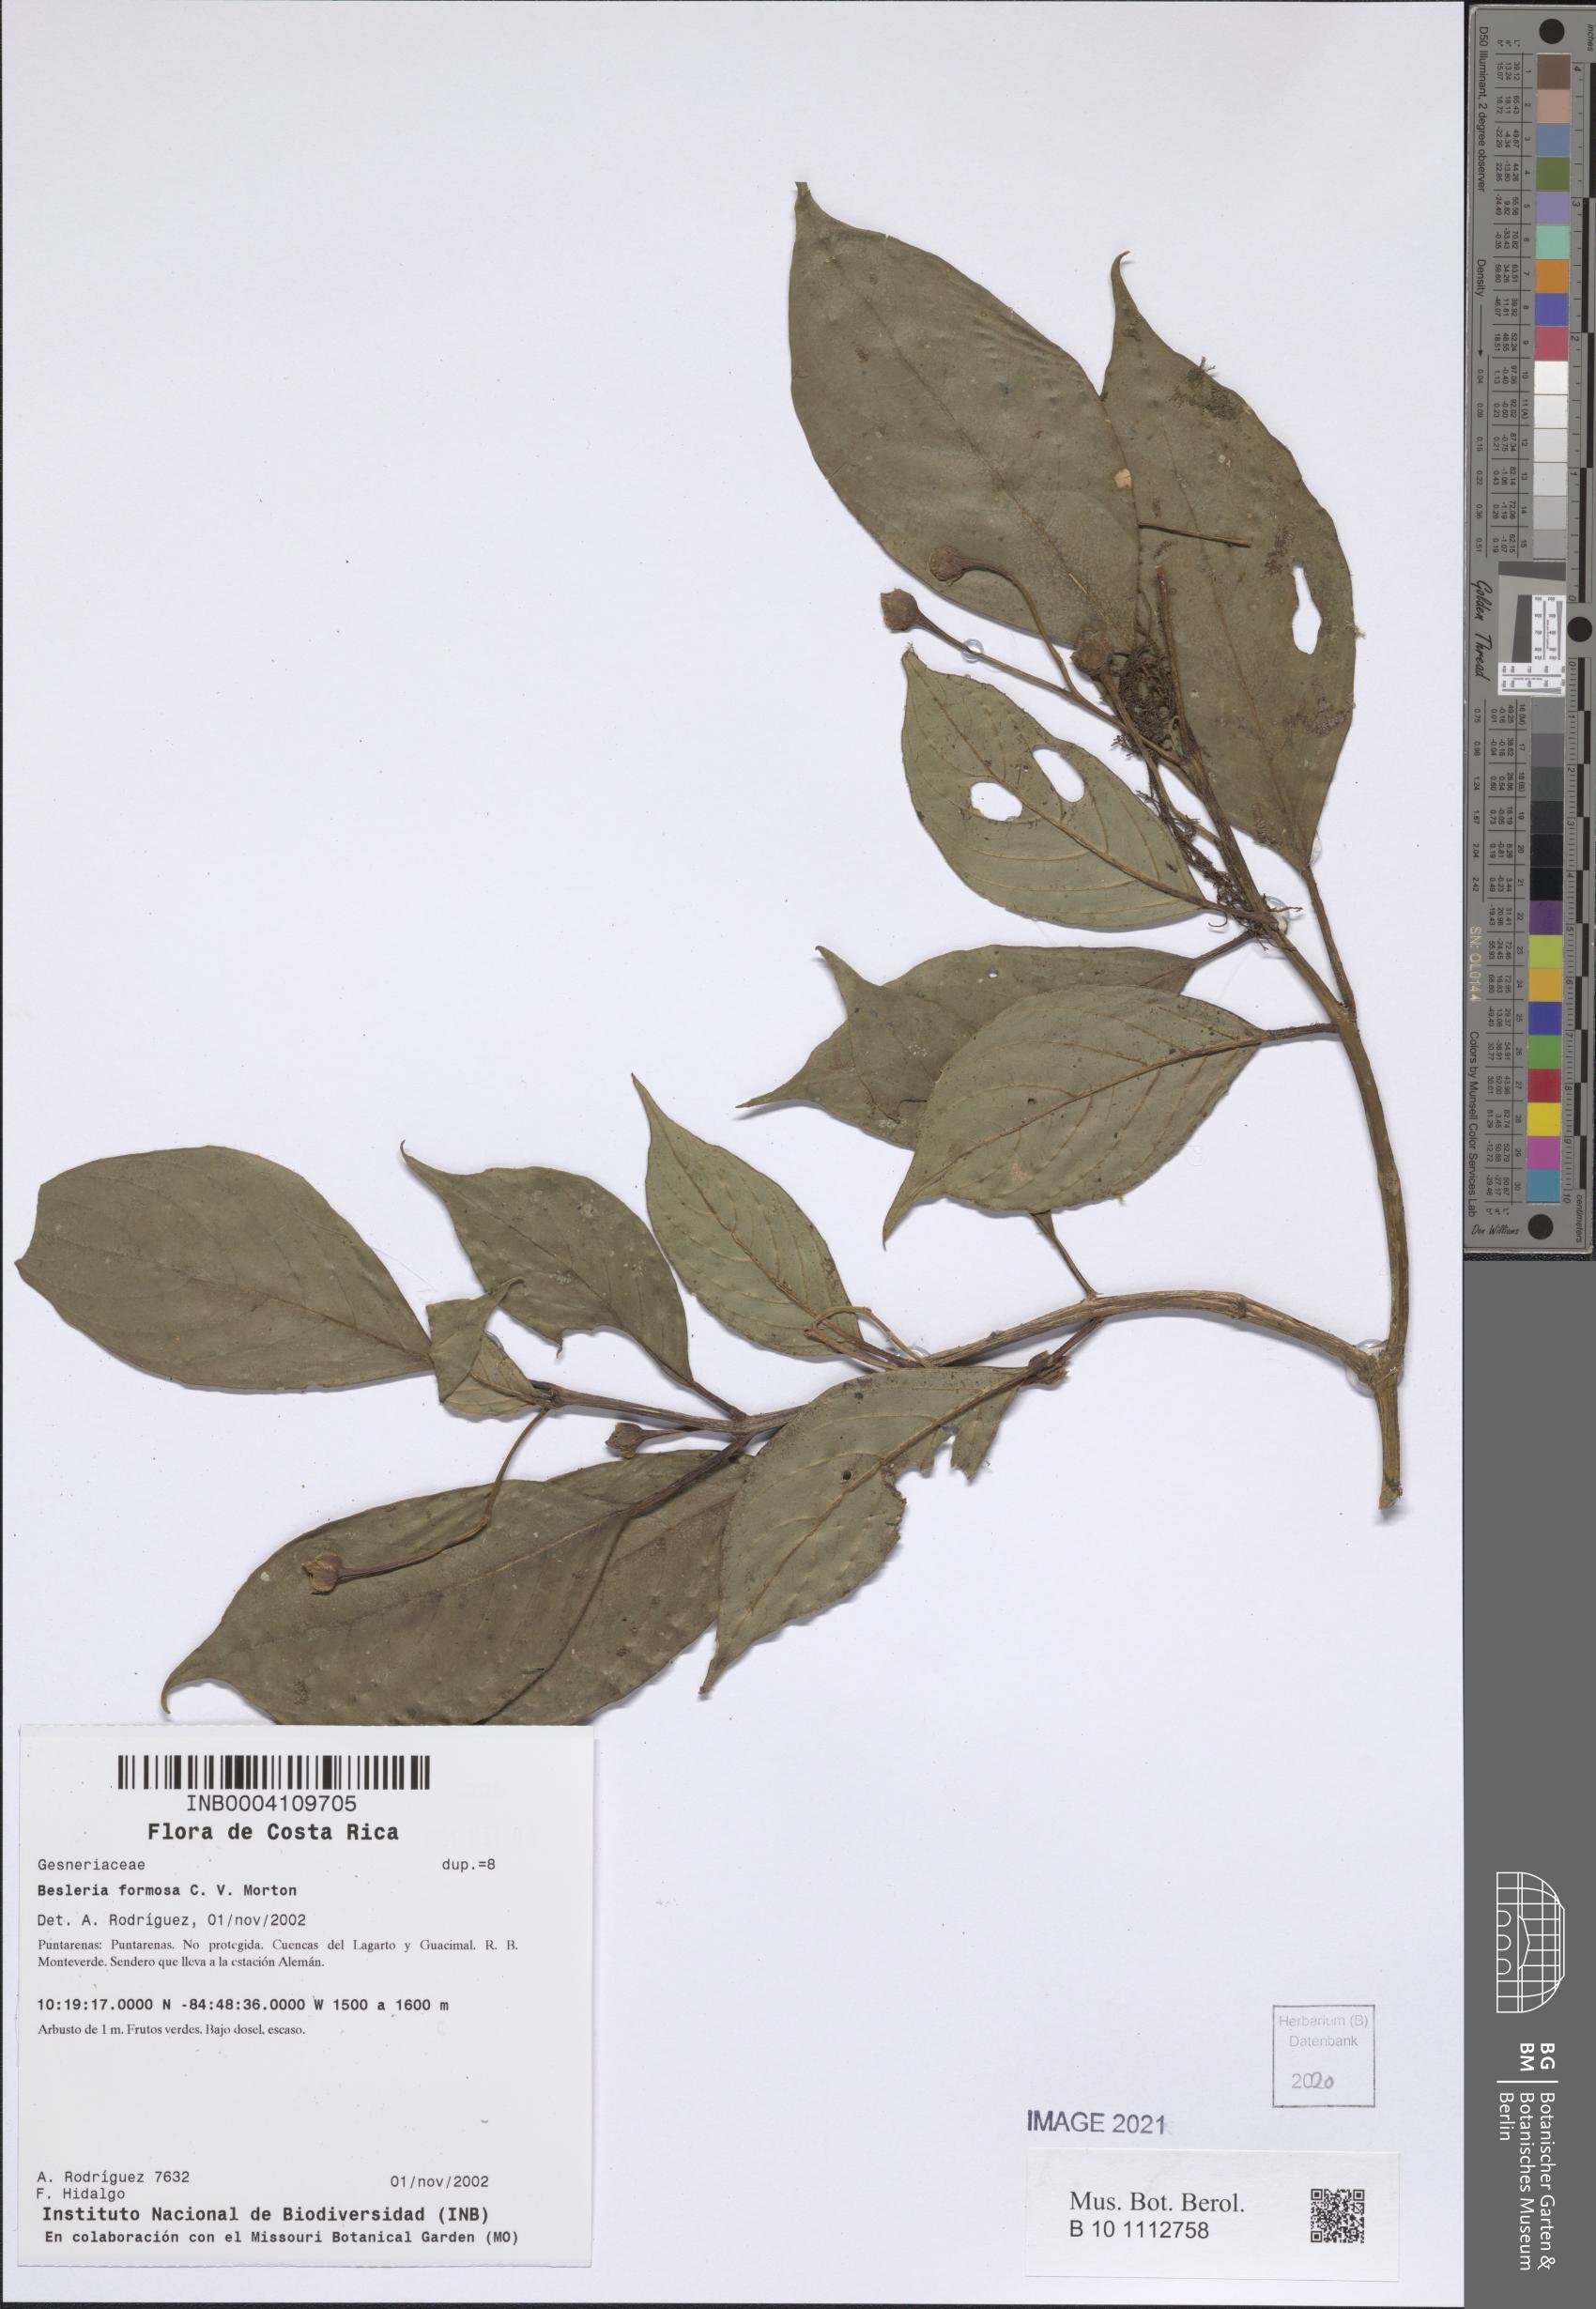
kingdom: Plantae
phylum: Tracheophyta
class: Magnoliopsida
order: Lamiales
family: Gesneriaceae
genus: Besleria
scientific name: Besleria amabilis
